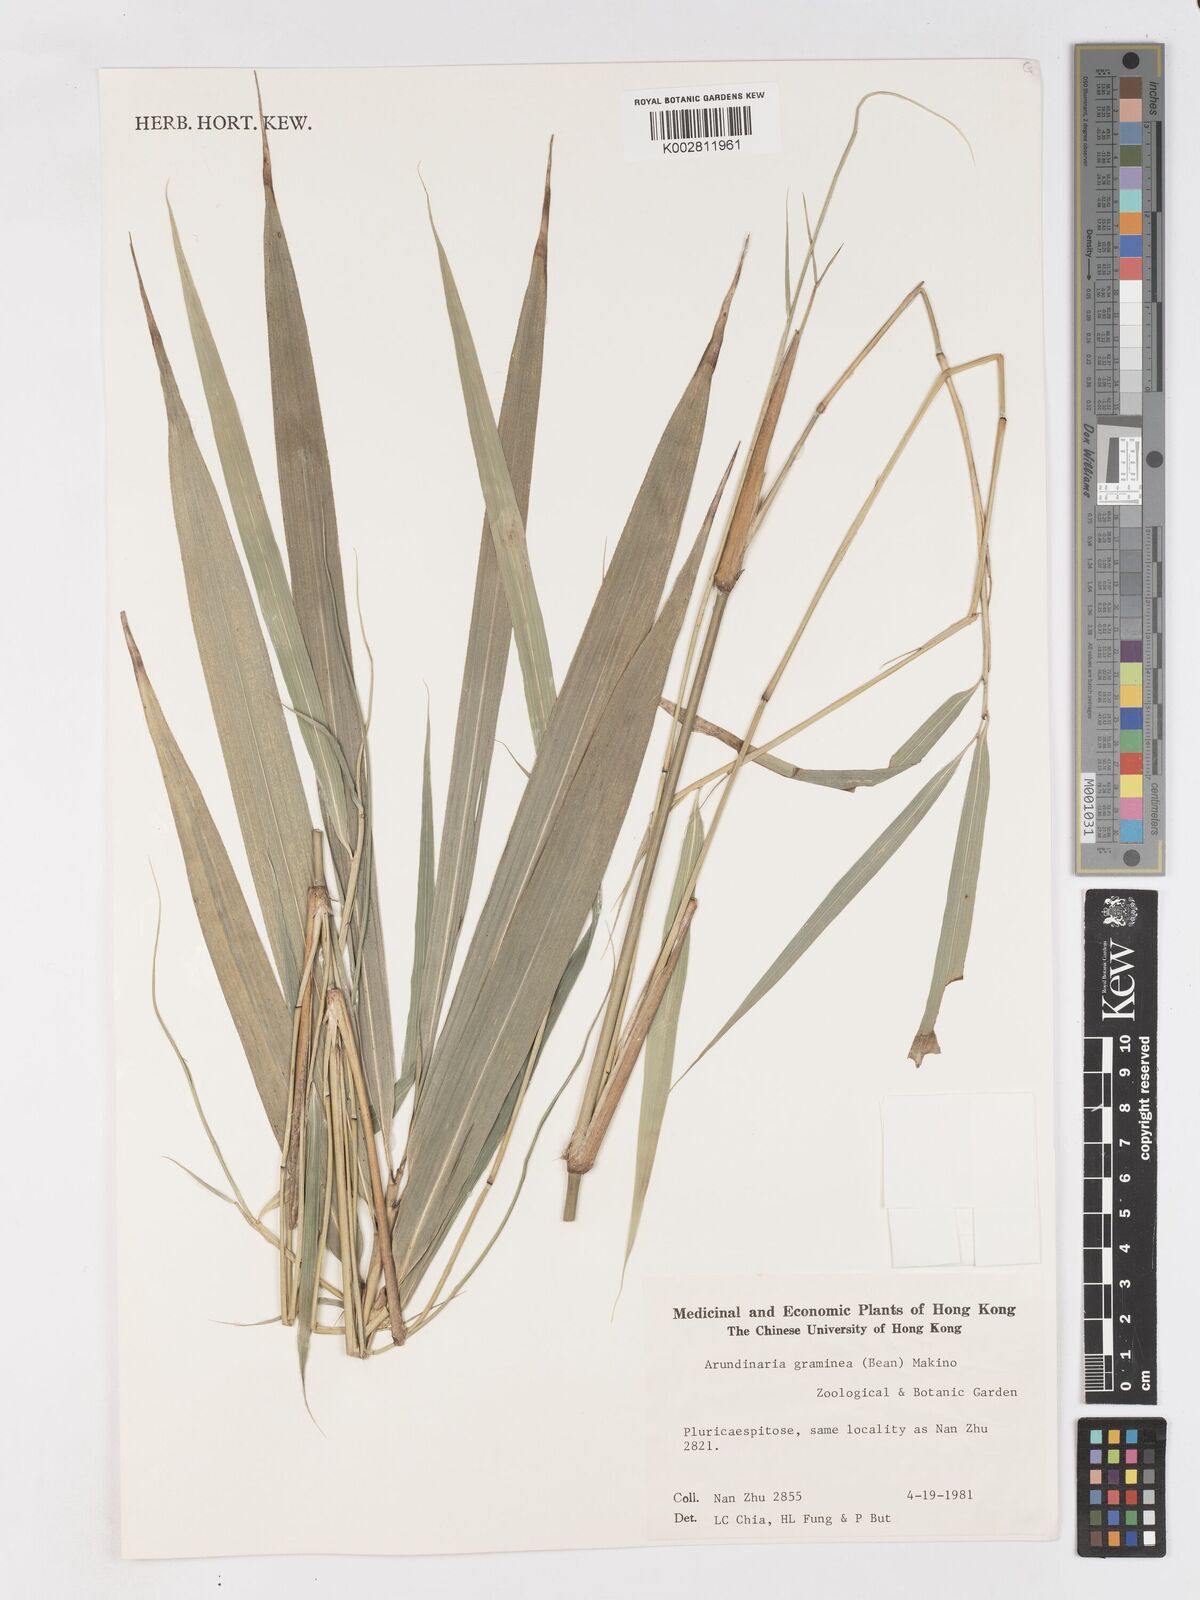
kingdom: Plantae
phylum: Tracheophyta
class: Liliopsida
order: Poales
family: Poaceae
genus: Pleioblastus
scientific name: Pleioblastus gramineus
